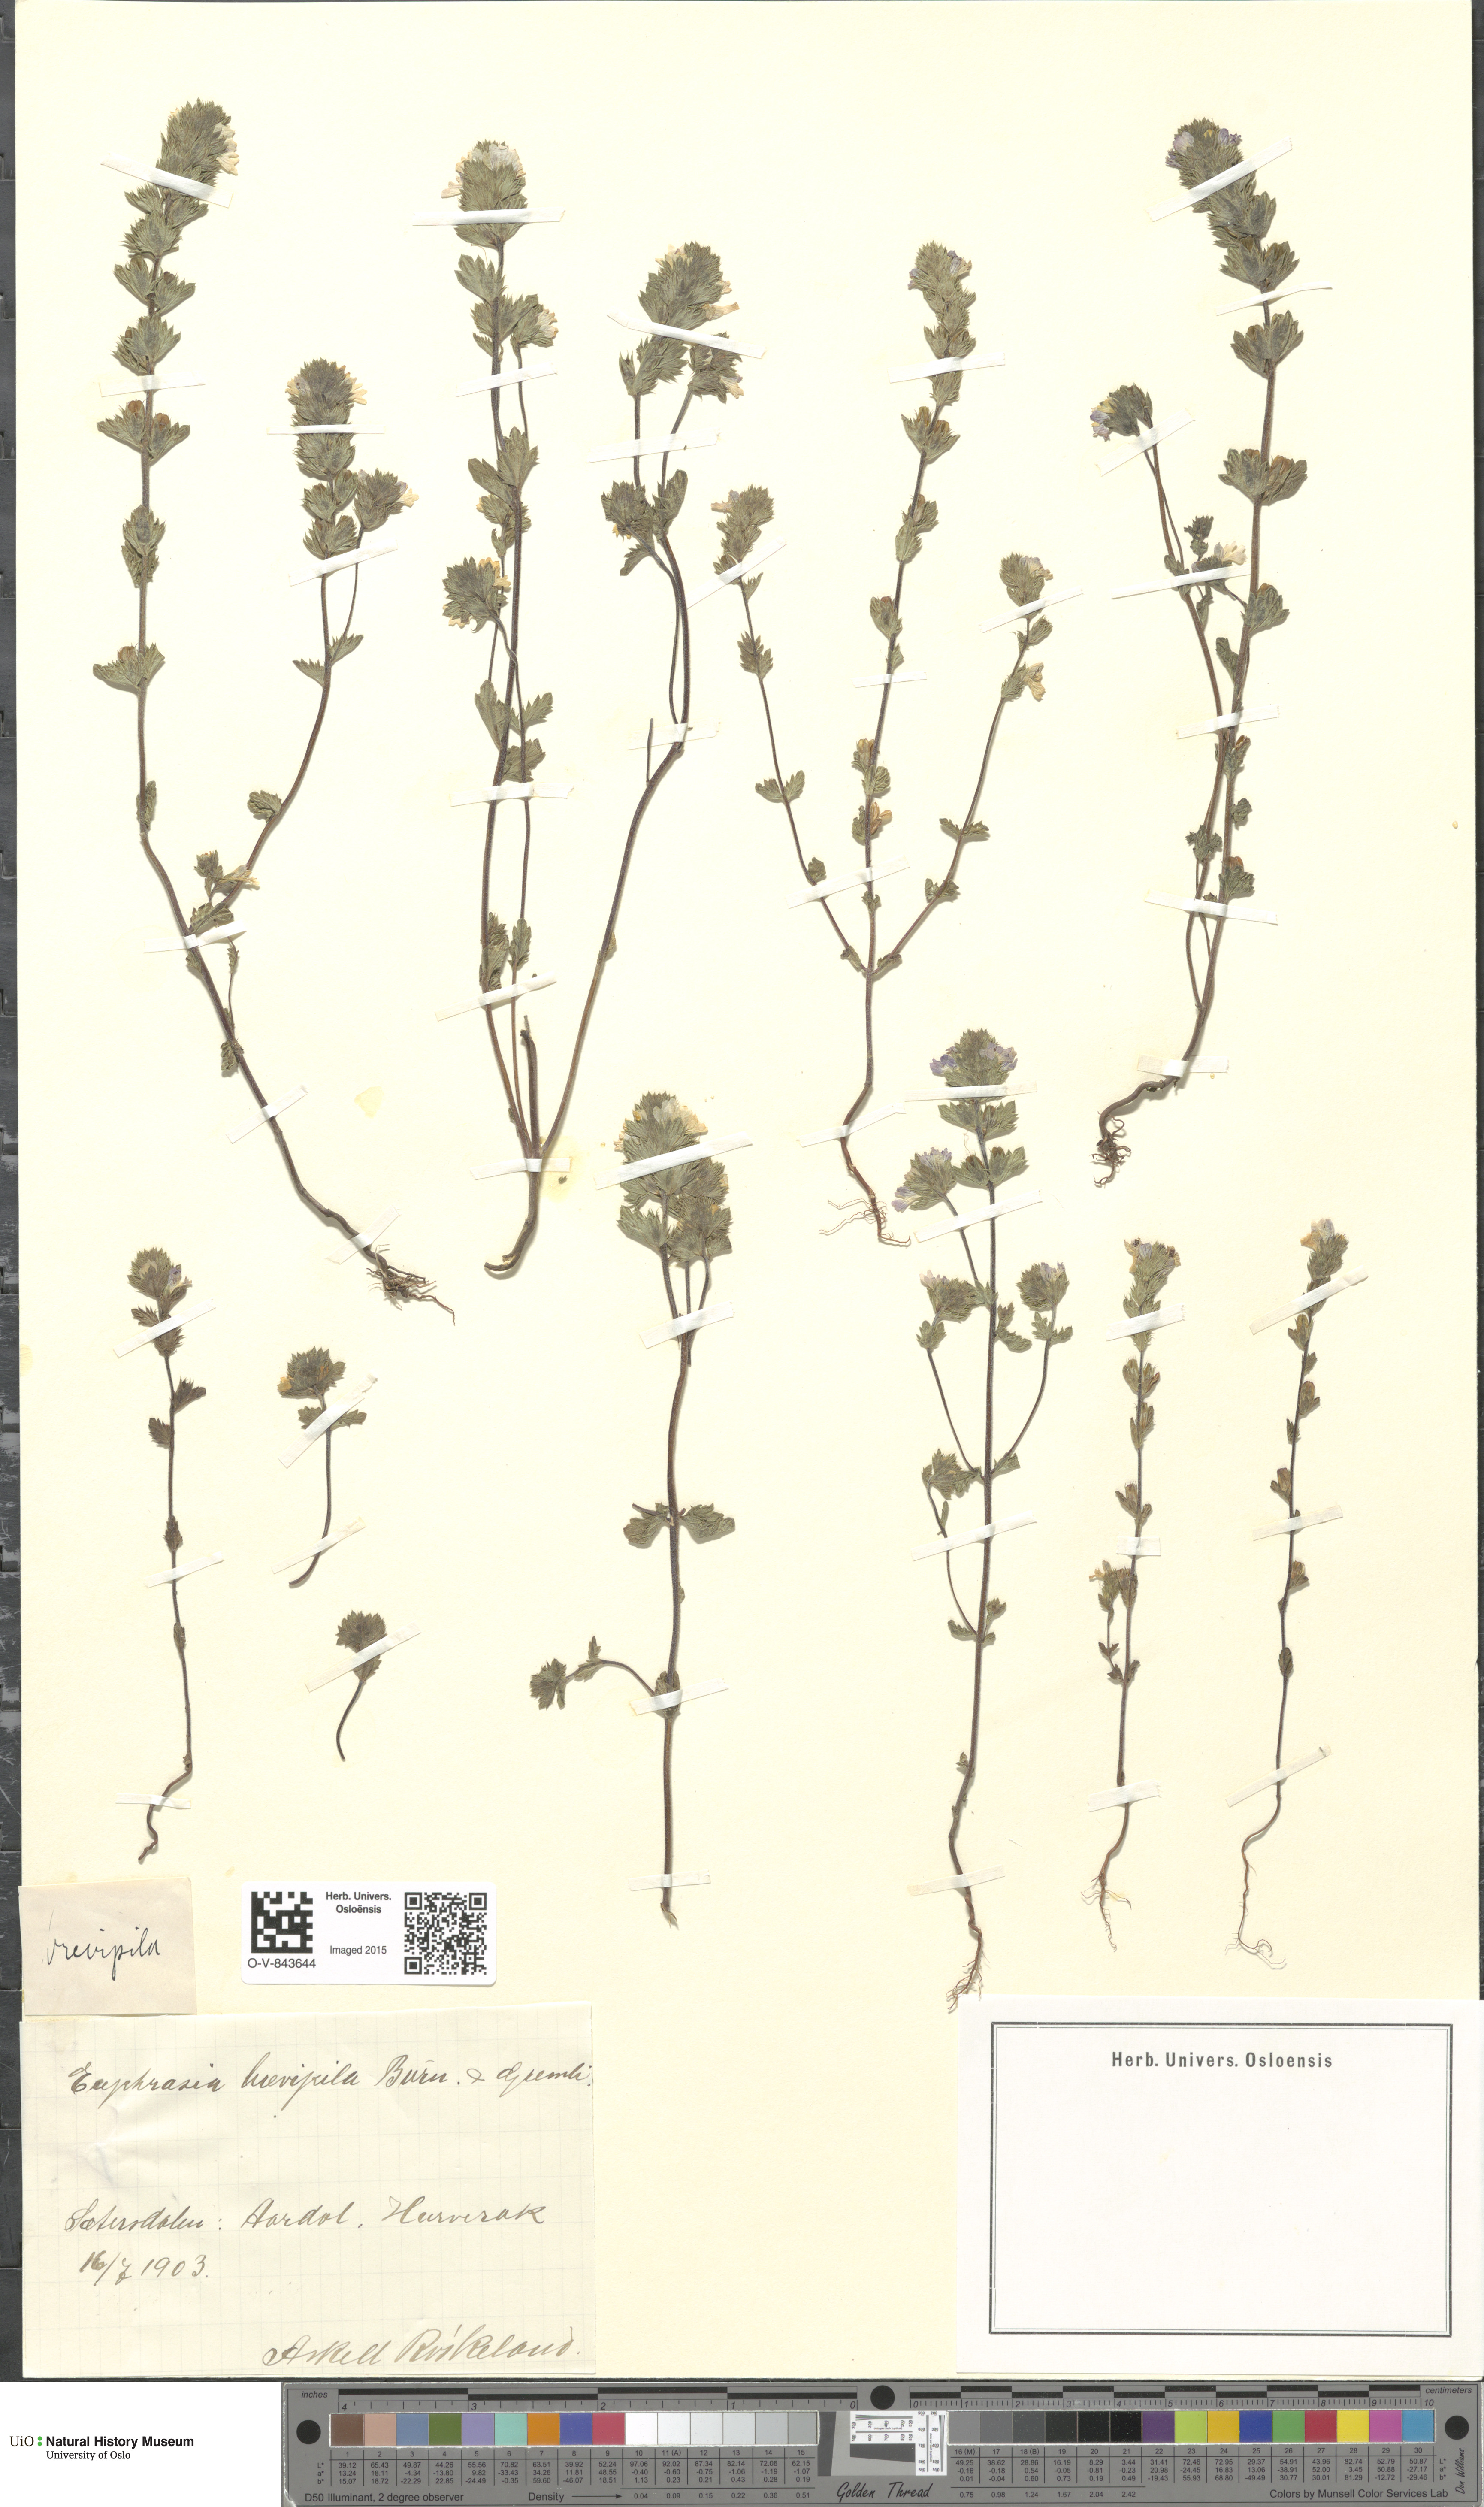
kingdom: Plantae
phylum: Tracheophyta
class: Magnoliopsida
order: Lamiales
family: Orobanchaceae
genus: Euphrasia
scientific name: Euphrasia vernalis
